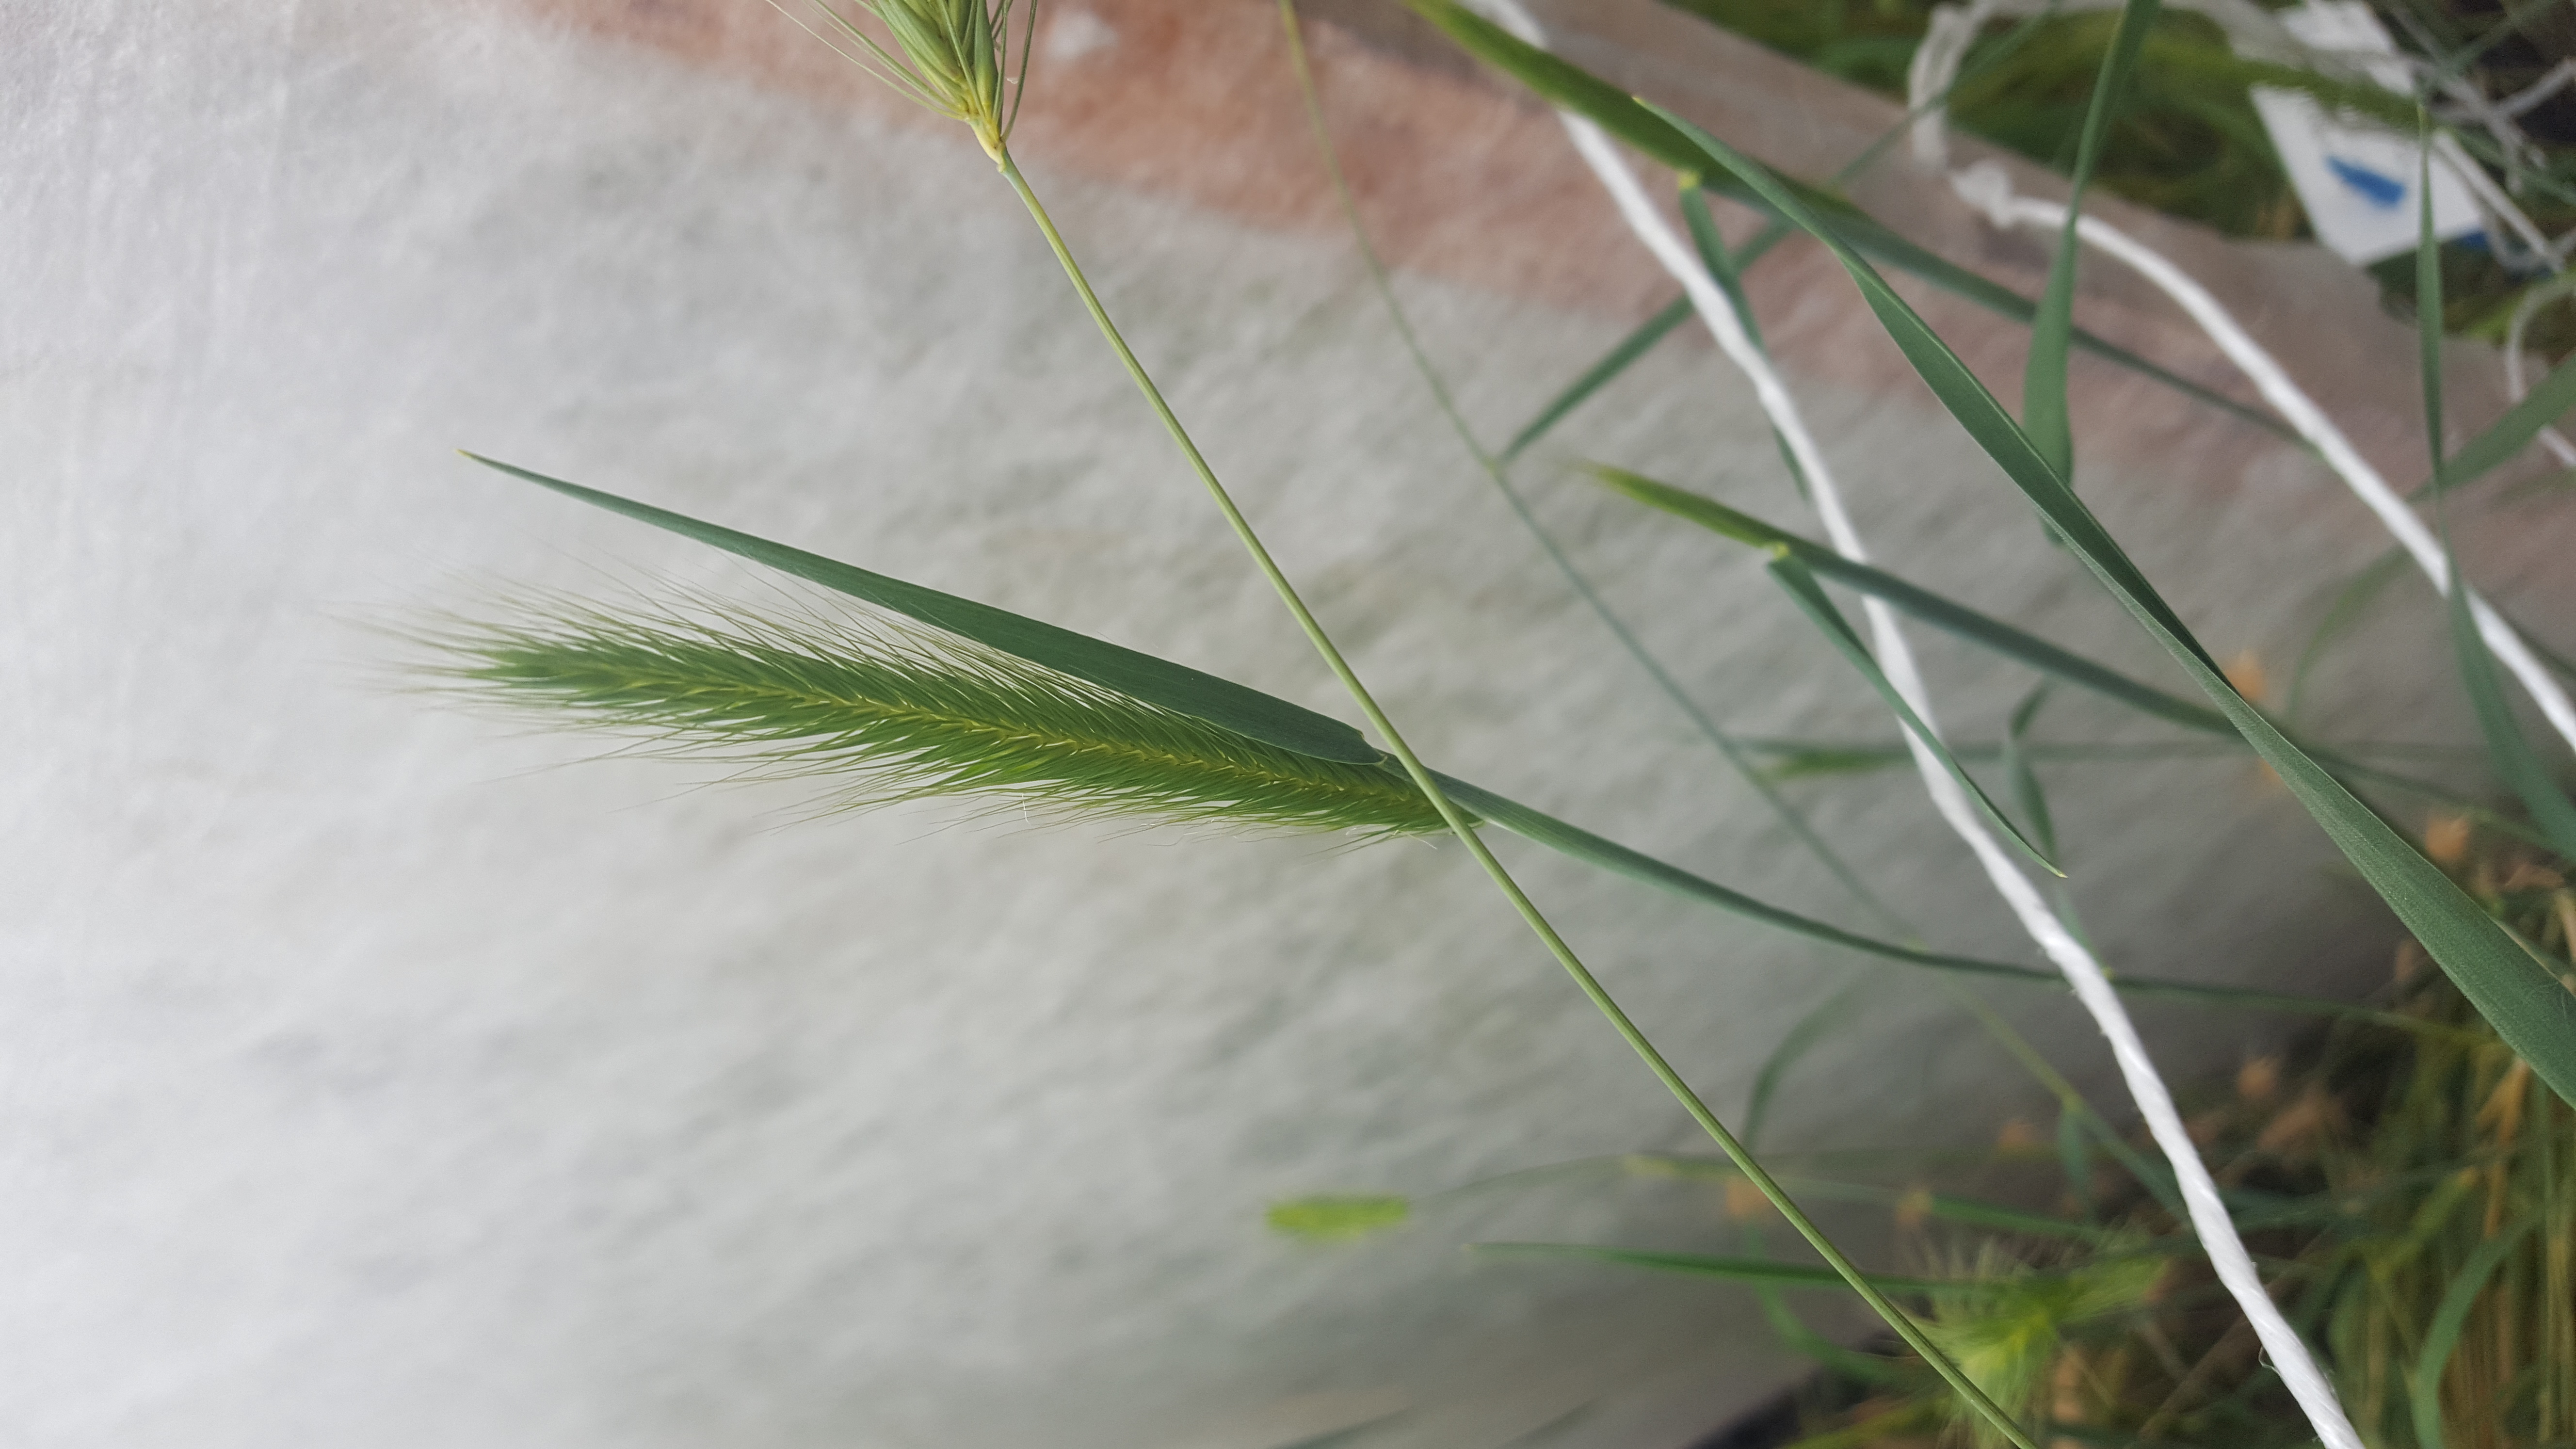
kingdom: Plantae
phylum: Tracheophyta
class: Liliopsida
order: Poales
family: Poaceae
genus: Hordeum
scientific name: Hordeum arizonicum
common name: Arizona barley
